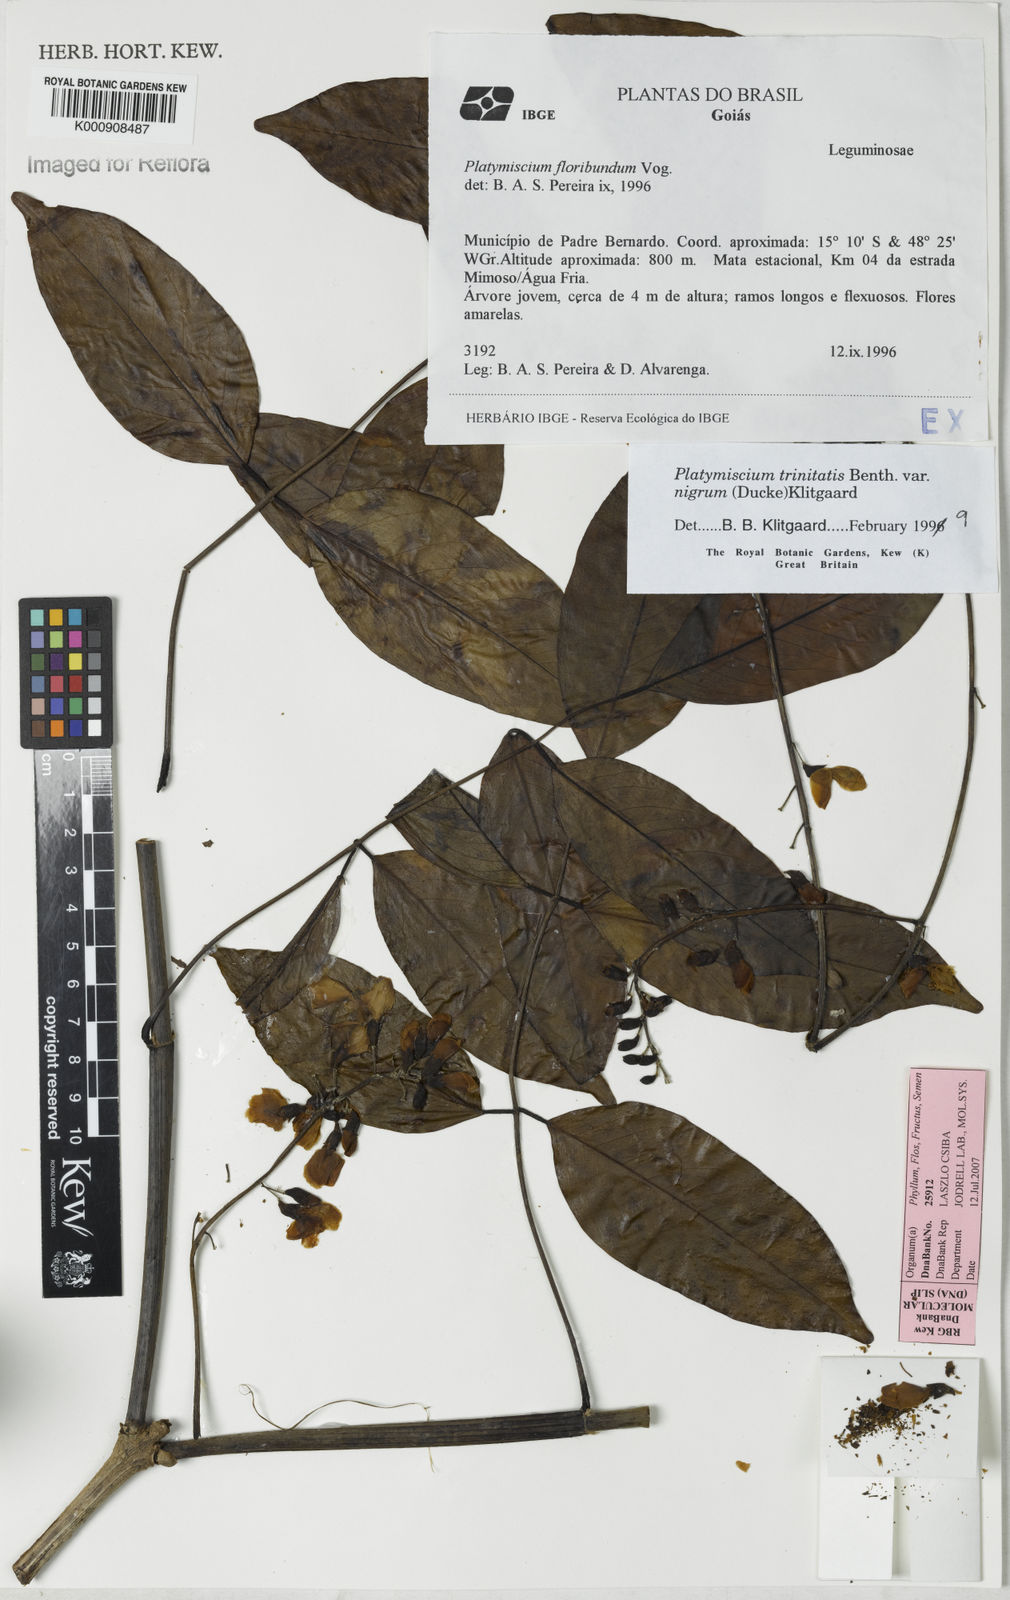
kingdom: Plantae
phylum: Tracheophyta
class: Magnoliopsida
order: Fabales
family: Fabaceae
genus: Platymiscium
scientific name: Platymiscium trinitatis
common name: Trinidad macawood
